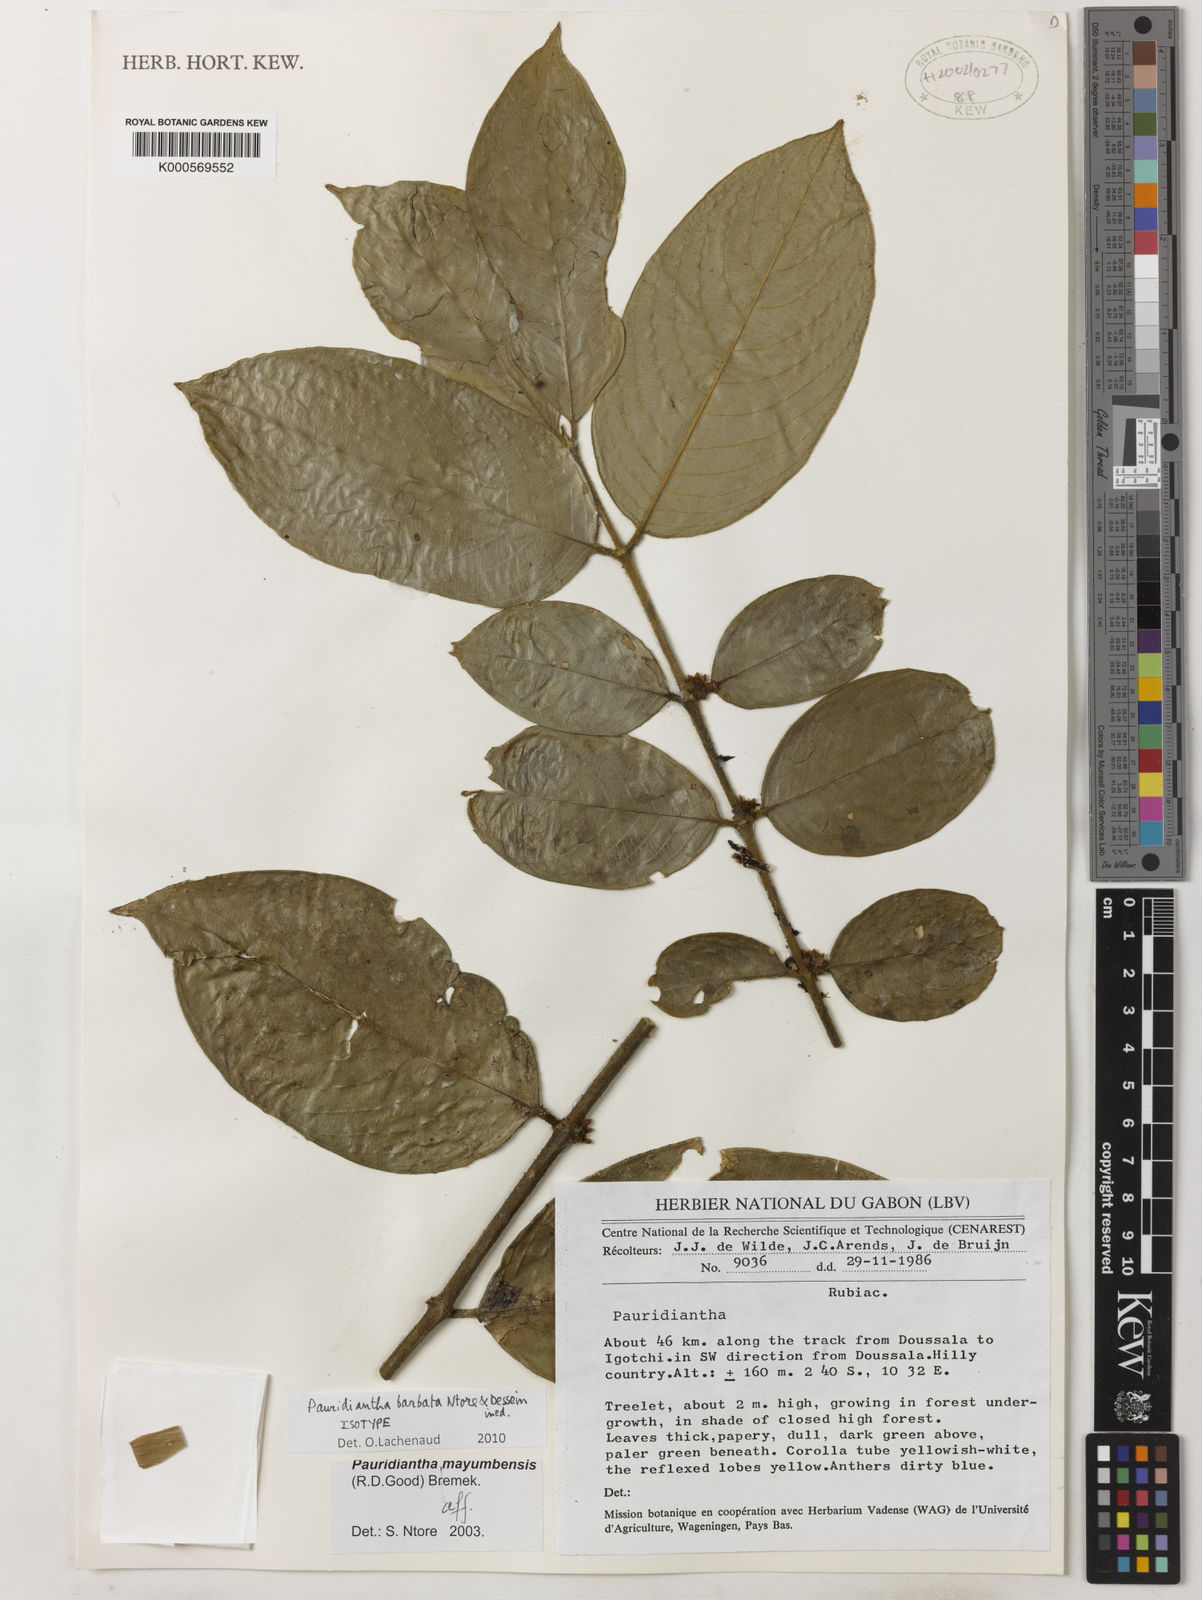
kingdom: Plantae
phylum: Tracheophyta
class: Magnoliopsida
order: Gentianales
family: Rubiaceae
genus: Pauridiantha
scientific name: Pauridiantha barbata
